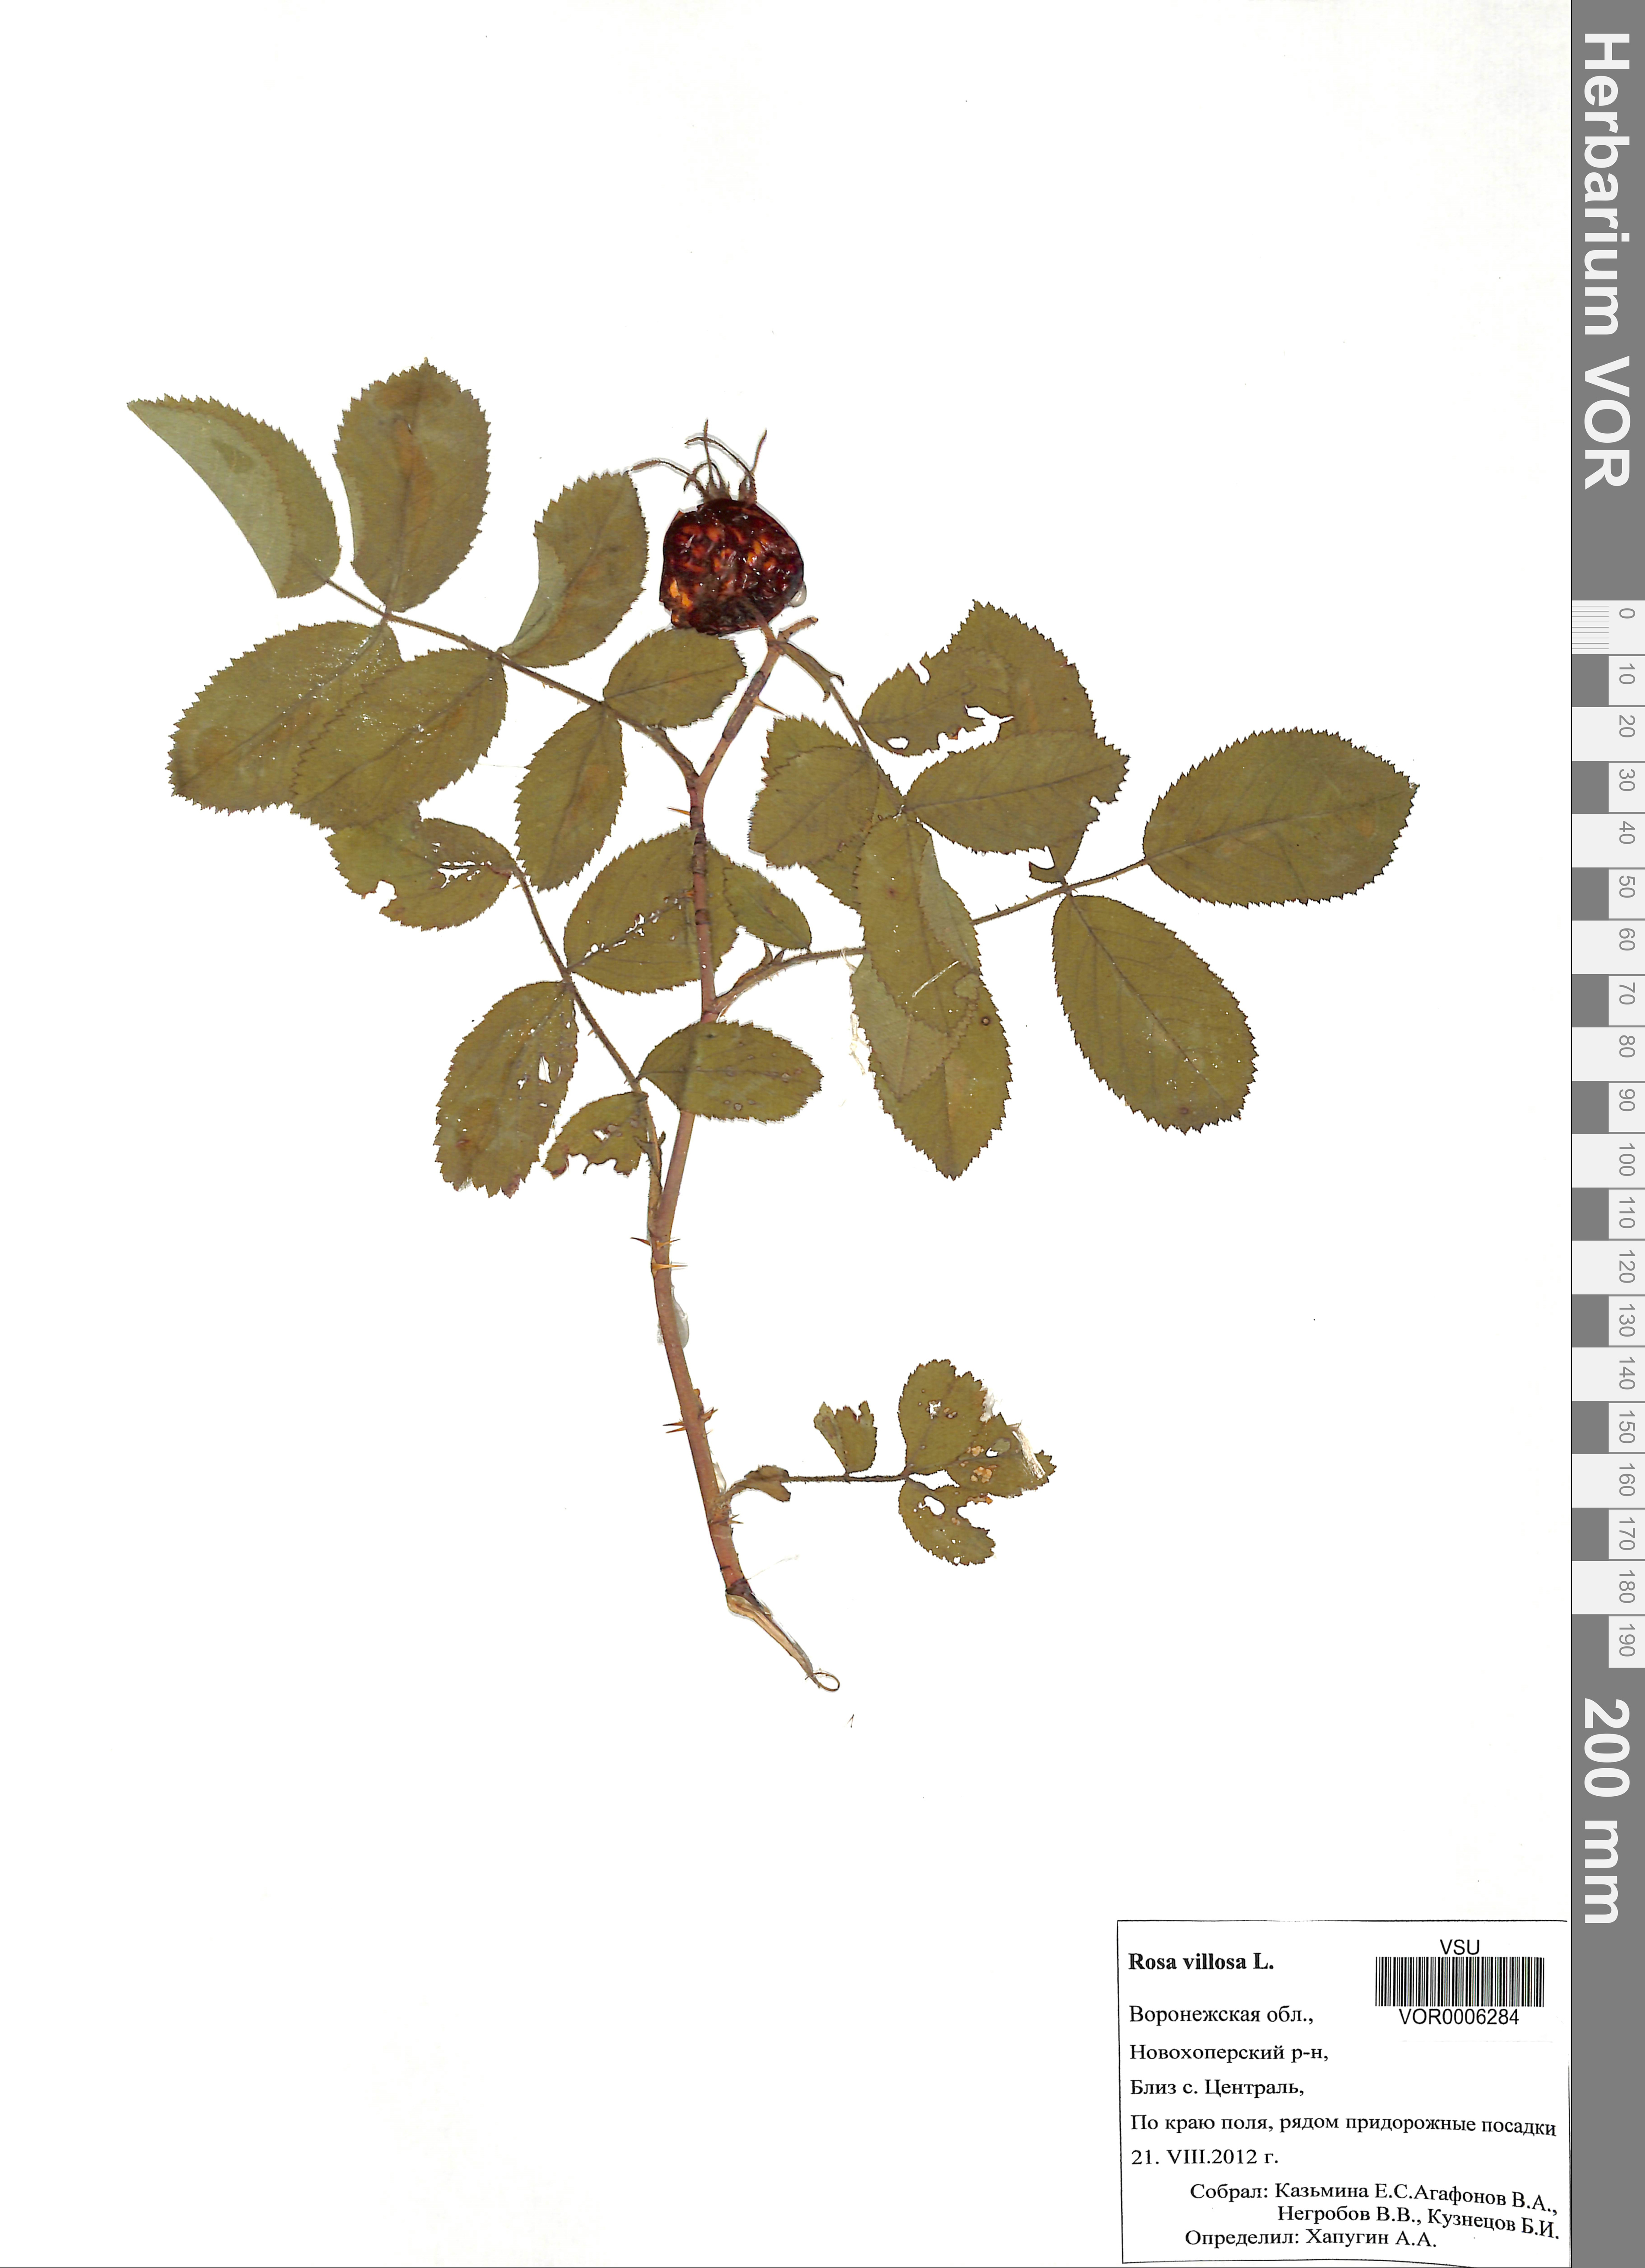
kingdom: Plantae
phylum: Tracheophyta
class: Magnoliopsida
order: Rosales
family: Rosaceae
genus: Rosa
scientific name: Rosa villosa
